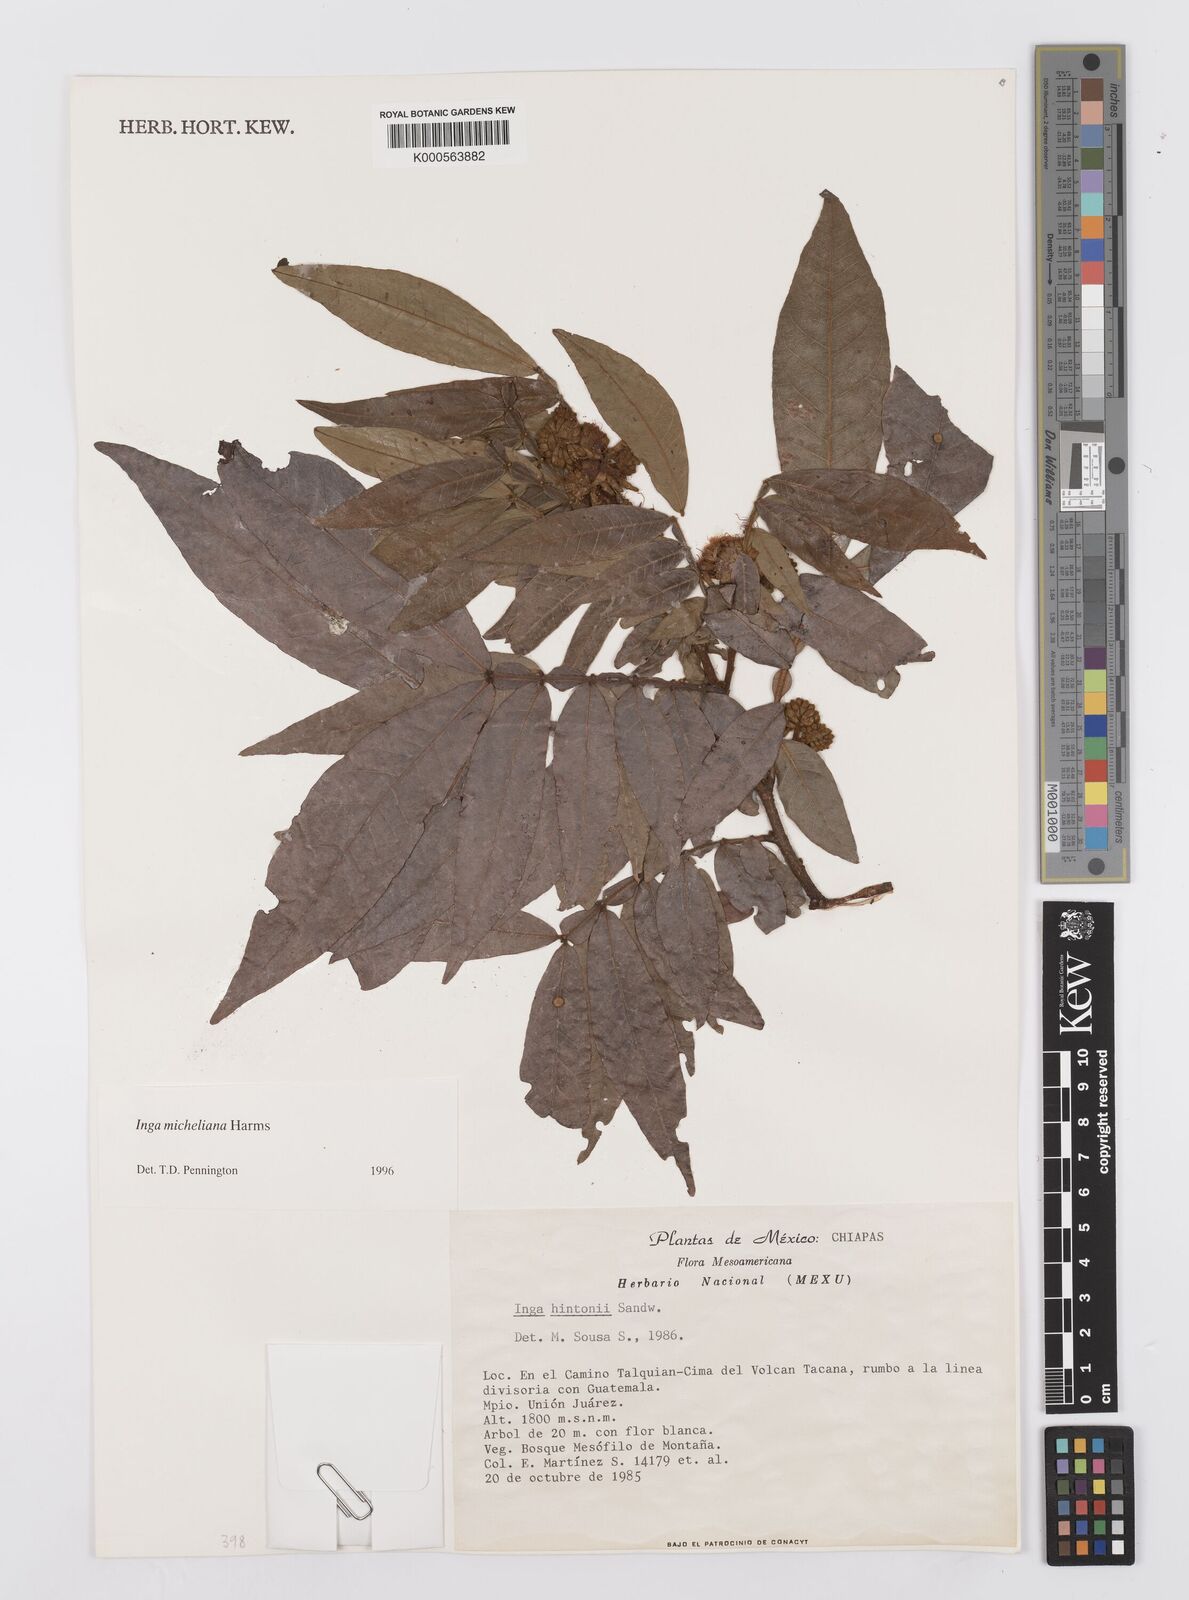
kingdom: Plantae
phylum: Tracheophyta
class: Magnoliopsida
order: Fabales
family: Fabaceae
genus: Inga
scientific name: Inga flexuosa
